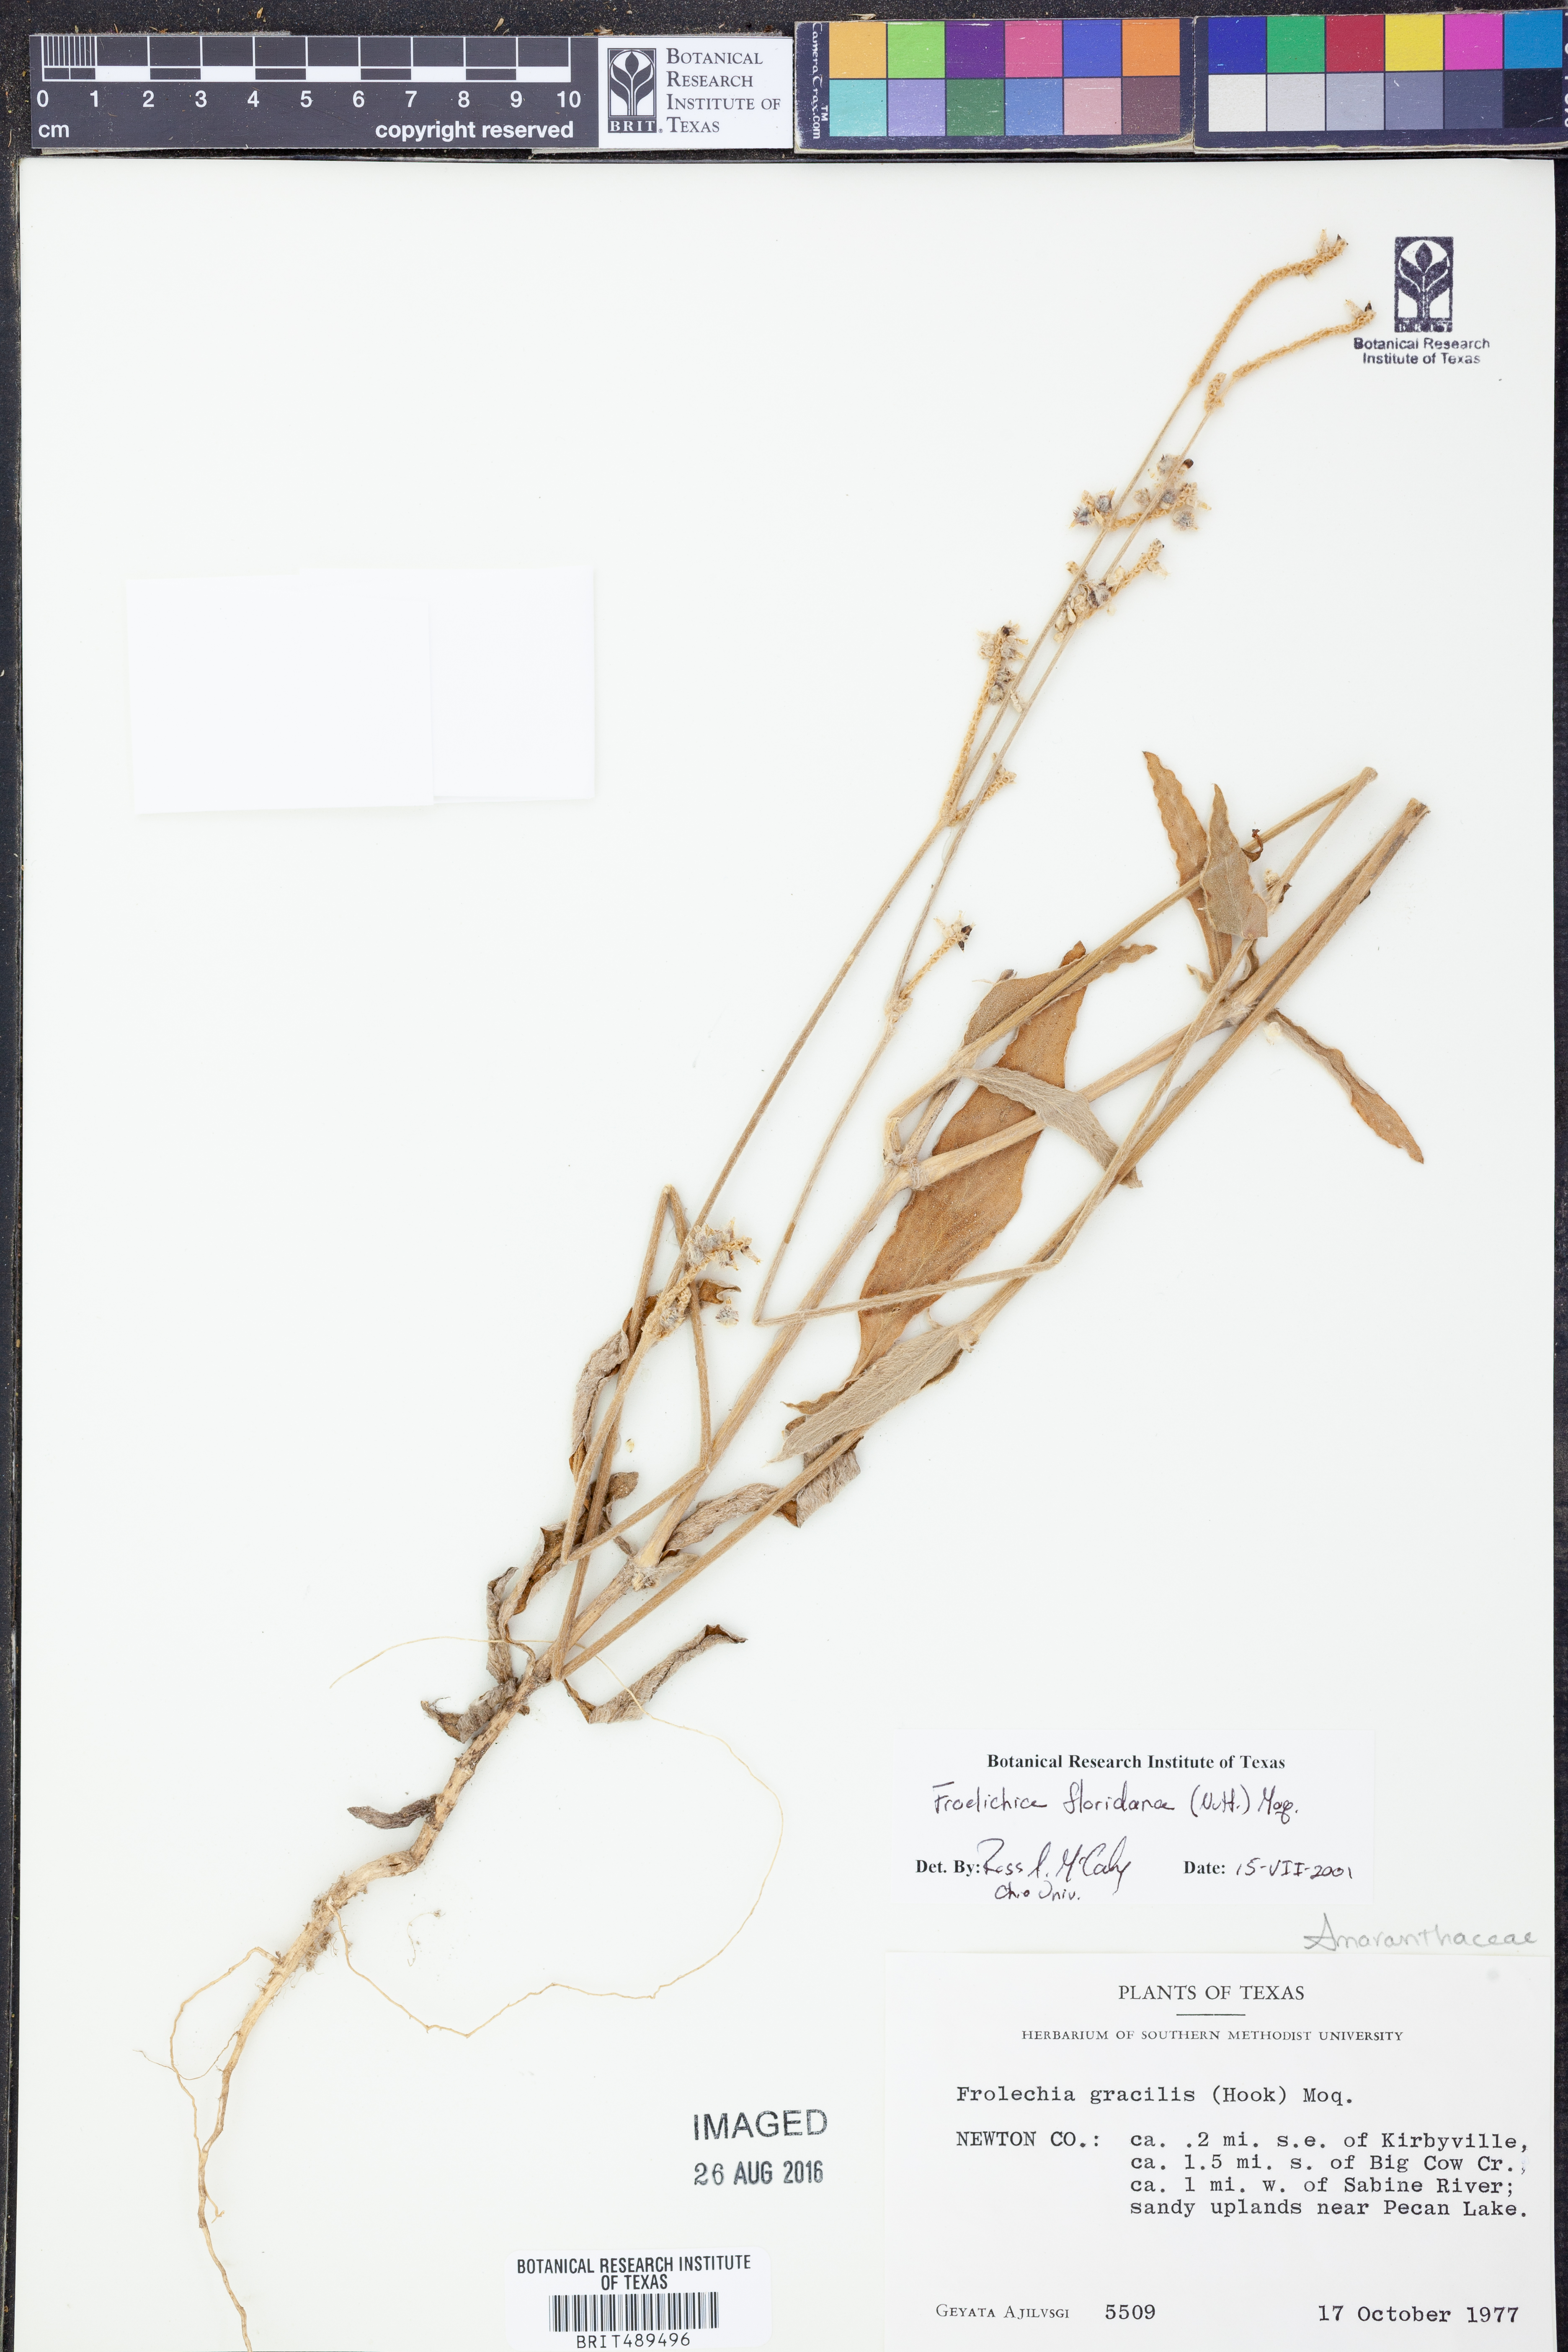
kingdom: Plantae
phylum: Tracheophyta
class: Magnoliopsida
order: Caryophyllales
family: Amaranthaceae
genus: Froelichia
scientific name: Froelichia floridana
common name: Florida snake-cotton
